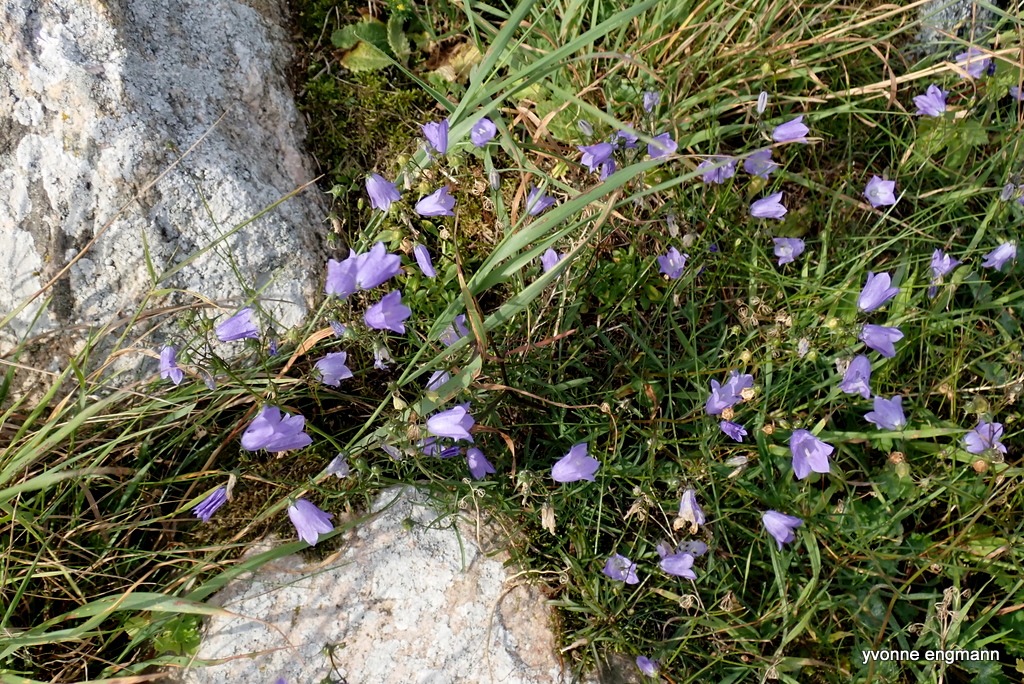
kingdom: Plantae
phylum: Tracheophyta
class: Magnoliopsida
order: Asterales
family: Campanulaceae
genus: Campanula
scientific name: Campanula rotundifolia
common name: Liden klokke
